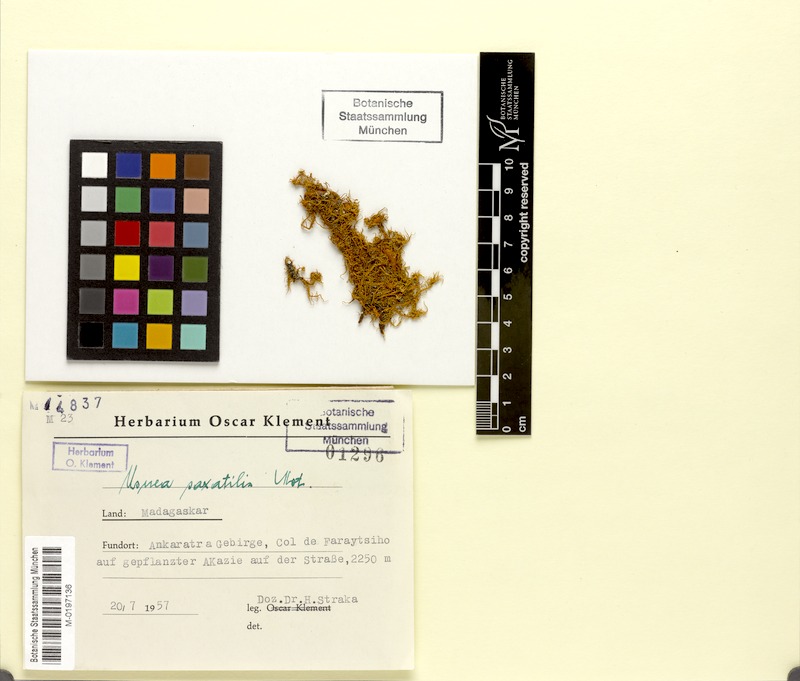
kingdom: Fungi
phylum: Ascomycota
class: Lecanoromycetes
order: Lecanorales
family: Parmeliaceae
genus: Usnea
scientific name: Usnea
